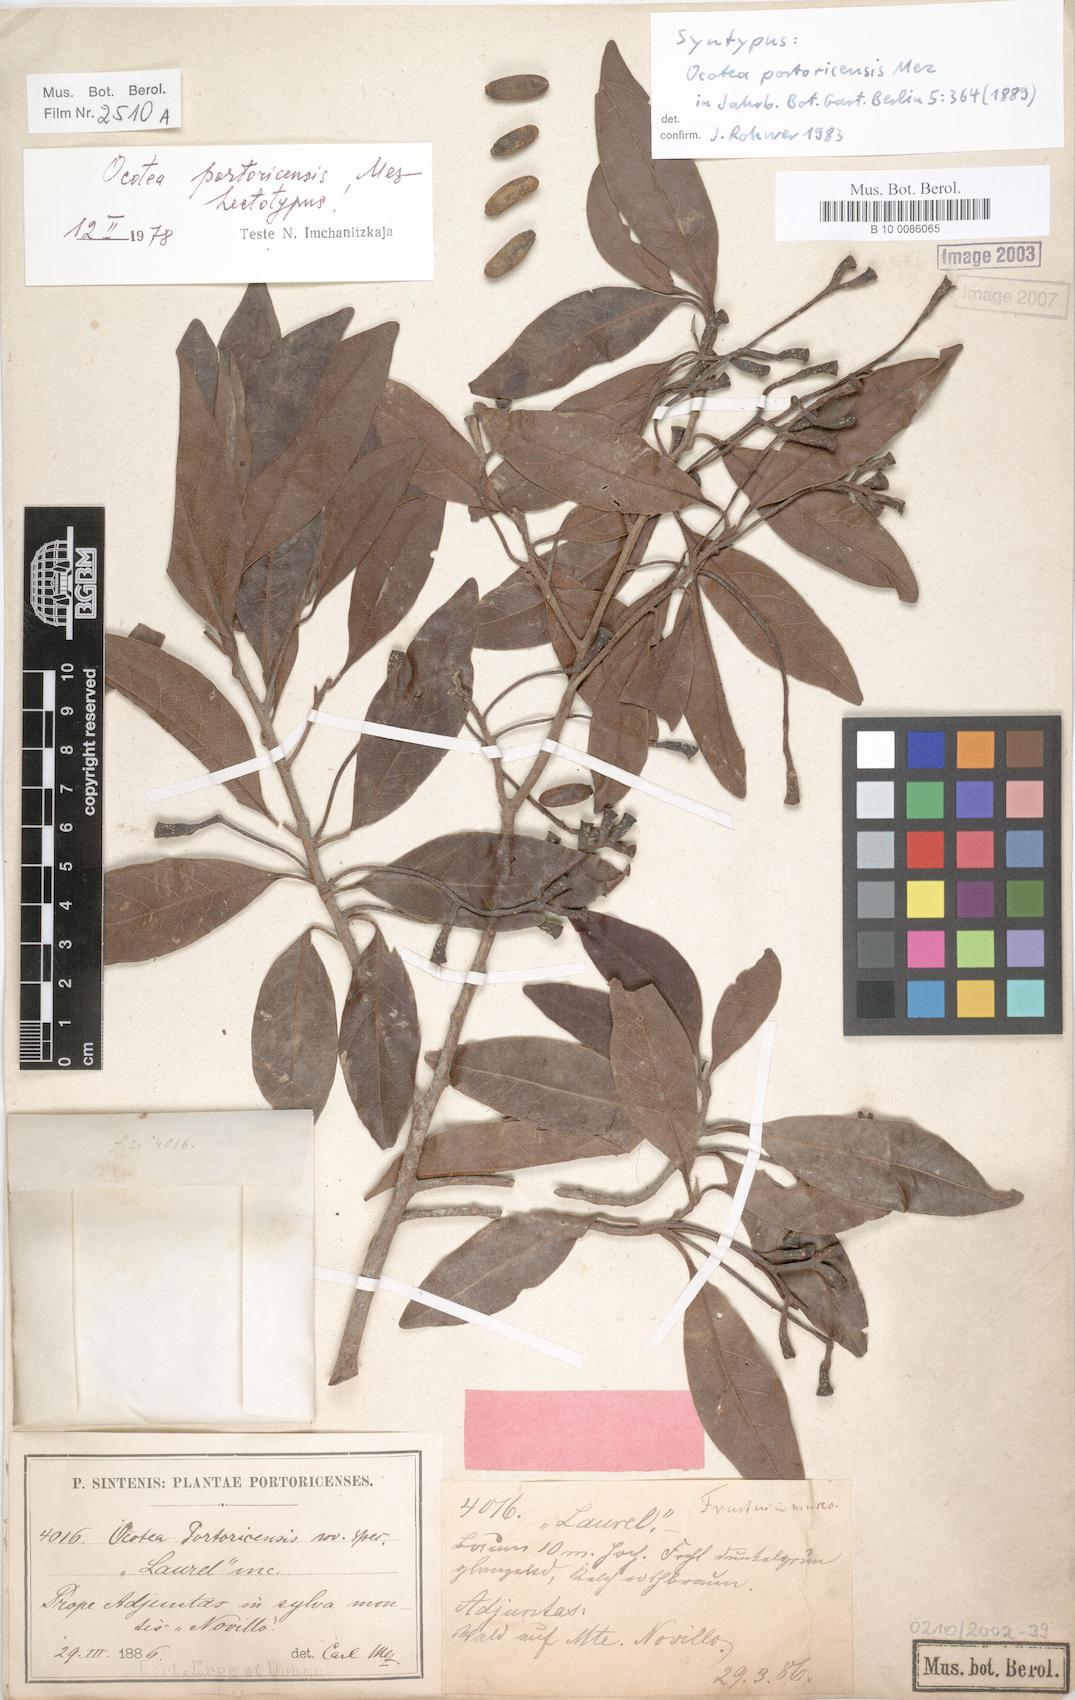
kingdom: Plantae
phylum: Tracheophyta
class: Magnoliopsida
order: Laurales
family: Lauraceae
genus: Ocotea
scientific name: Ocotea portoricensis
